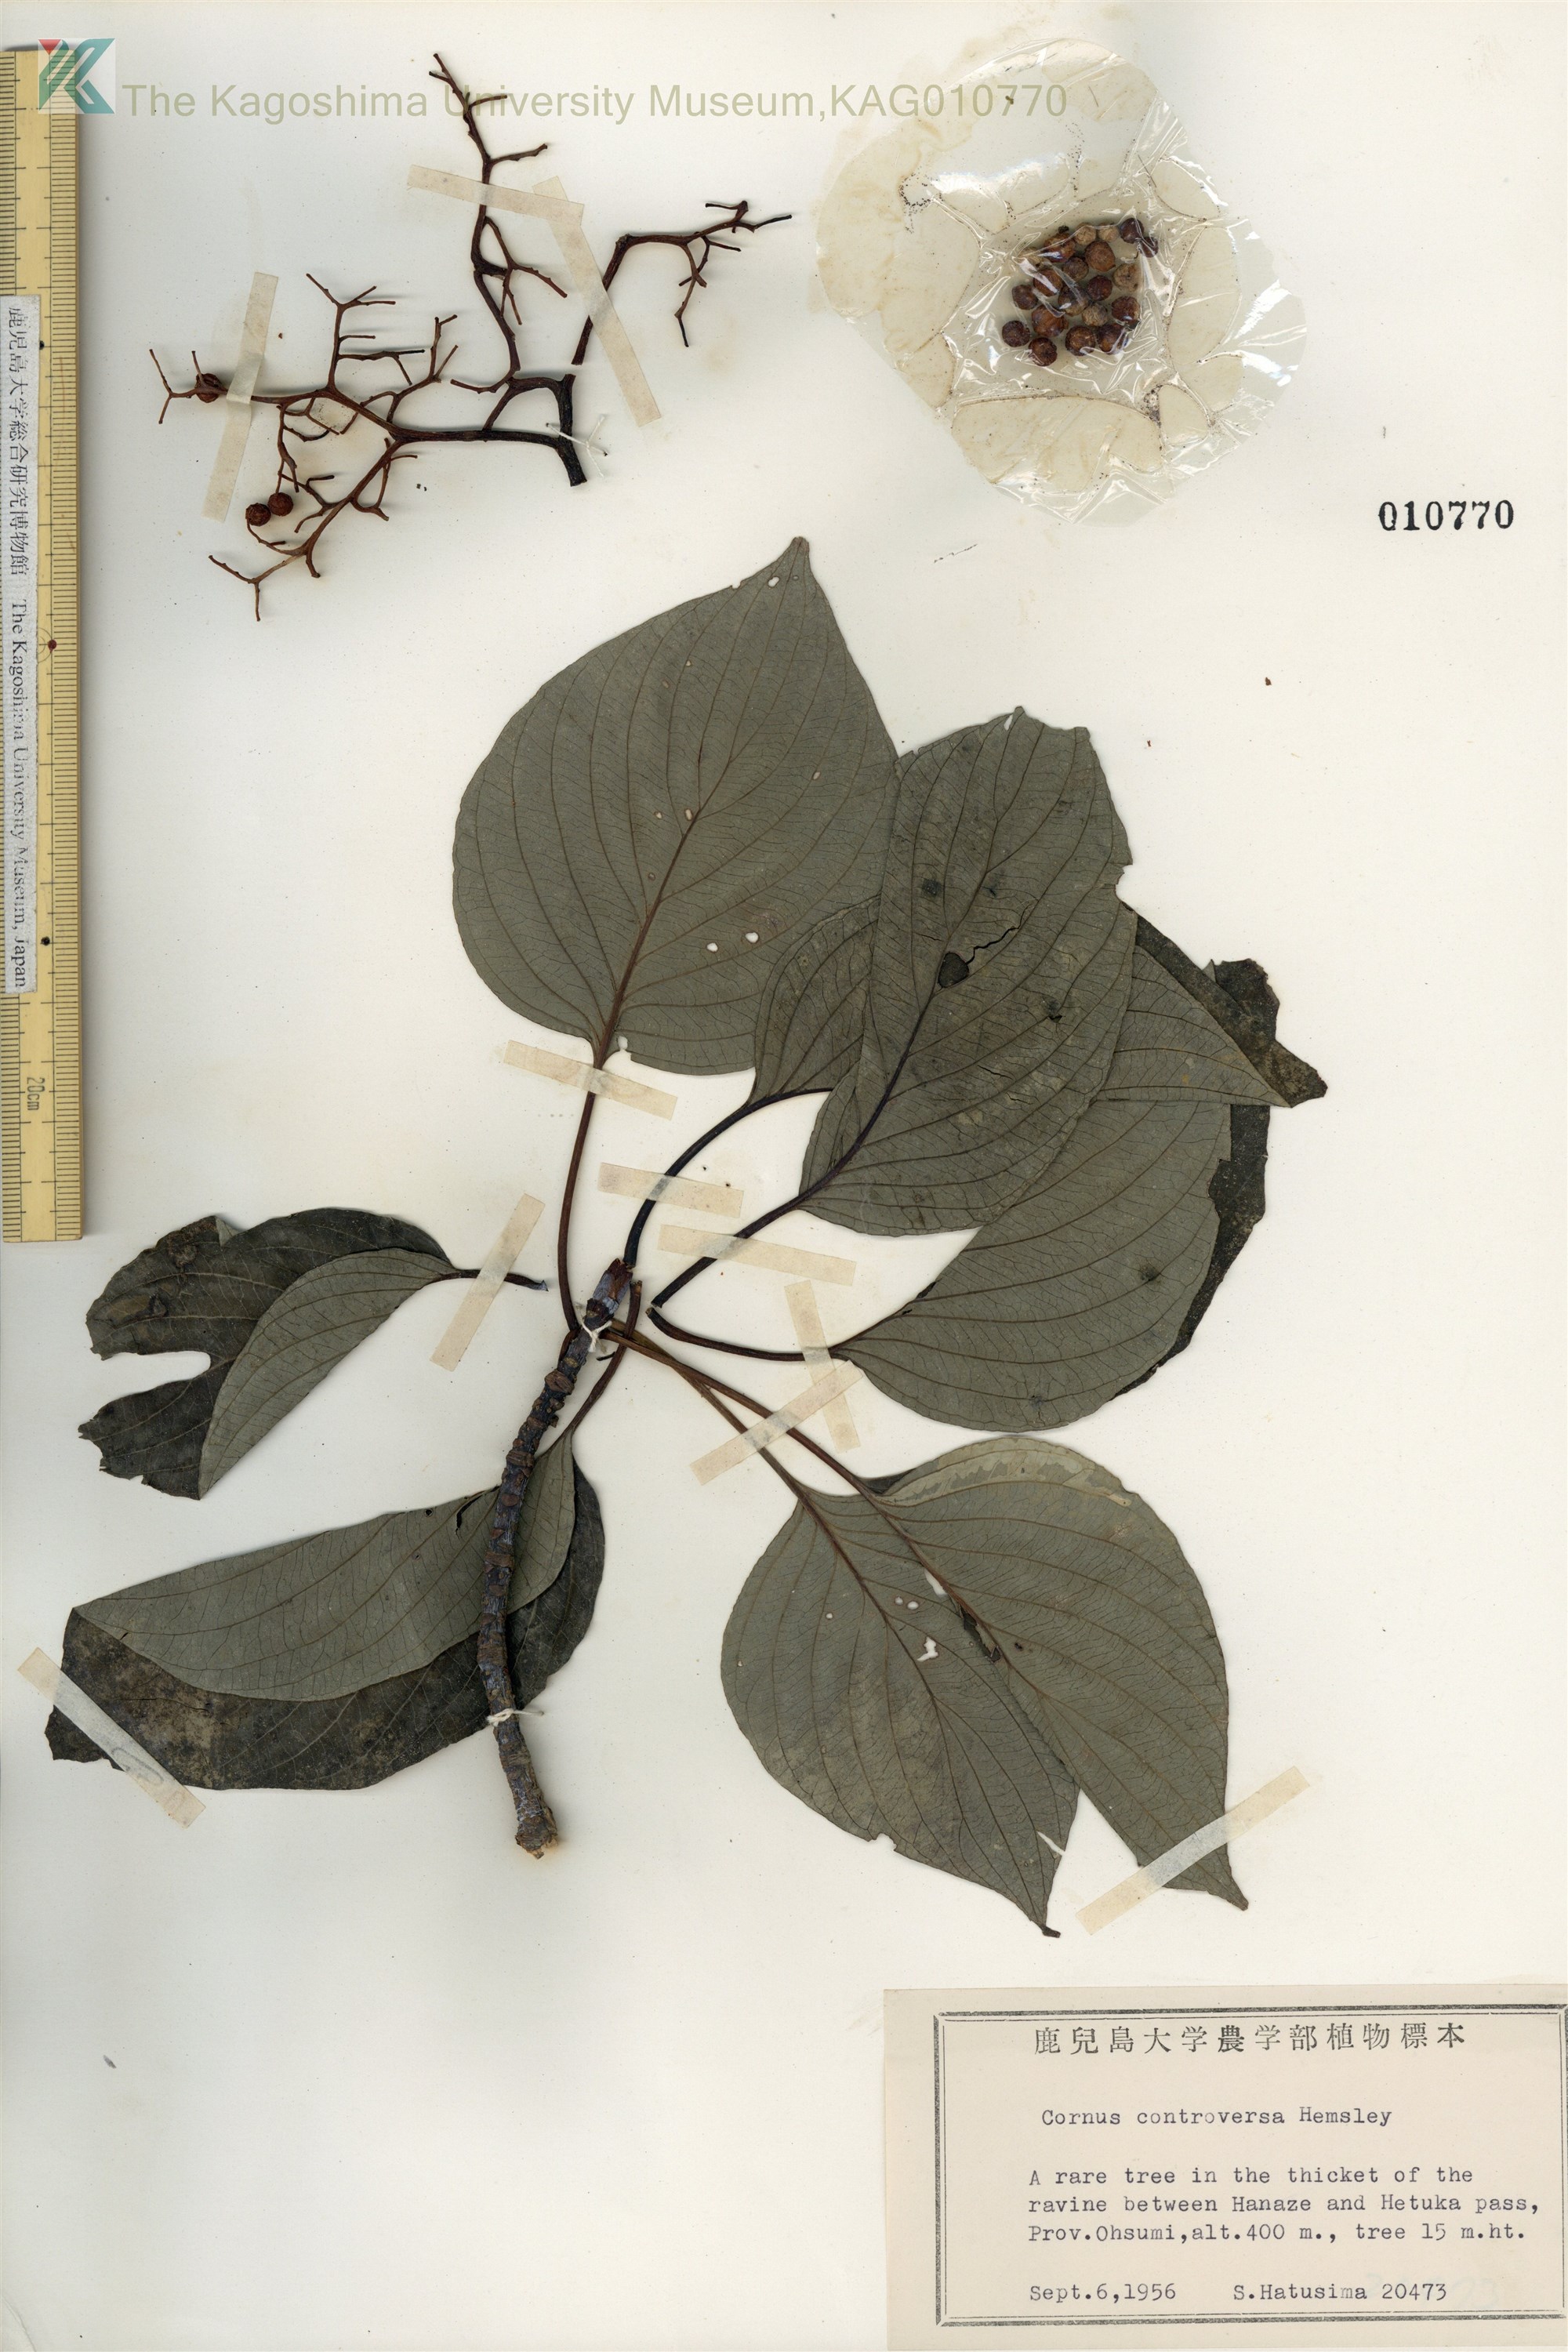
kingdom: Plantae
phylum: Tracheophyta
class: Magnoliopsida
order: Cornales
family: Cornaceae
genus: Cornus
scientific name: Cornus controversa
